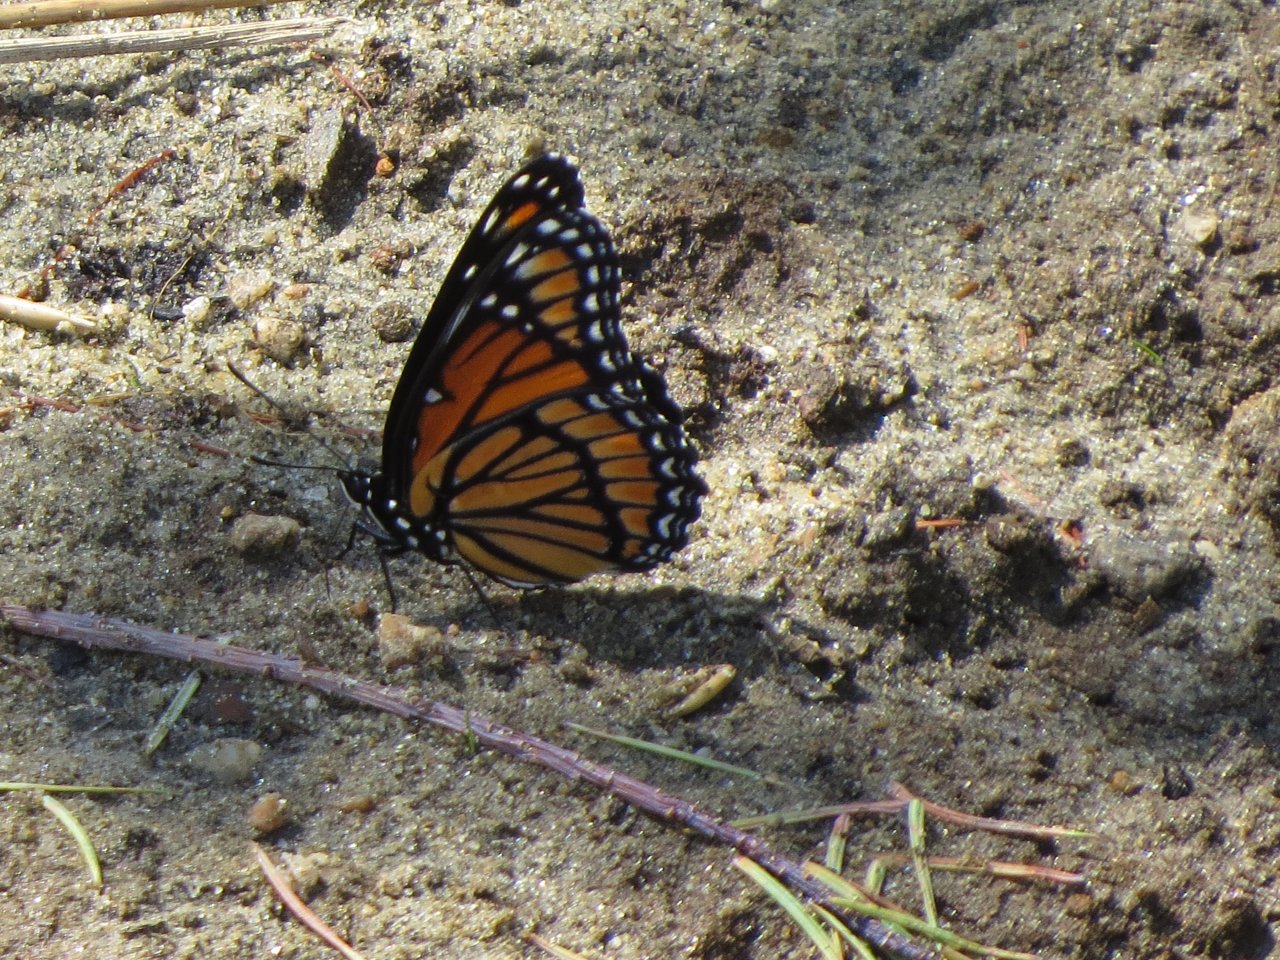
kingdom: Animalia
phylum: Arthropoda
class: Insecta
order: Lepidoptera
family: Nymphalidae
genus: Limenitis
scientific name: Limenitis archippus
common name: Viceroy
